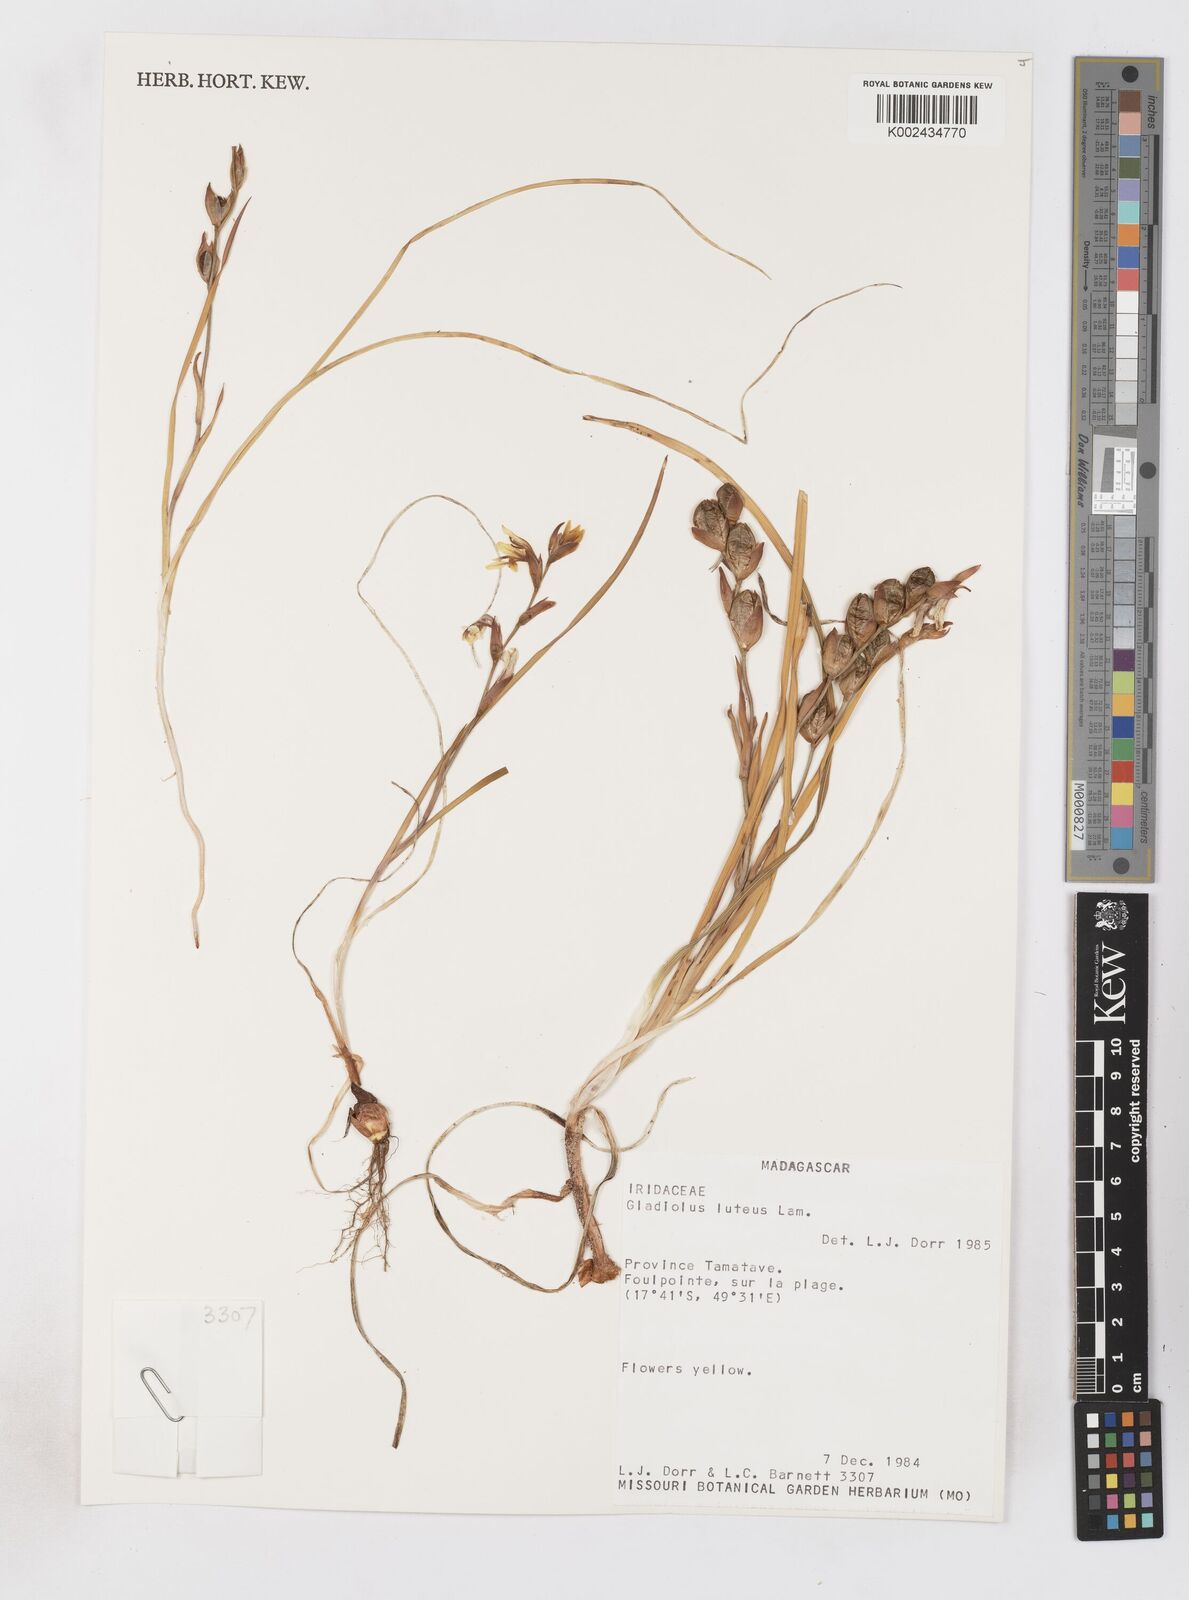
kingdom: Plantae
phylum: Tracheophyta
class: Liliopsida
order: Asparagales
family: Iridaceae
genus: Gladiolus
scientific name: Gladiolus luteus
